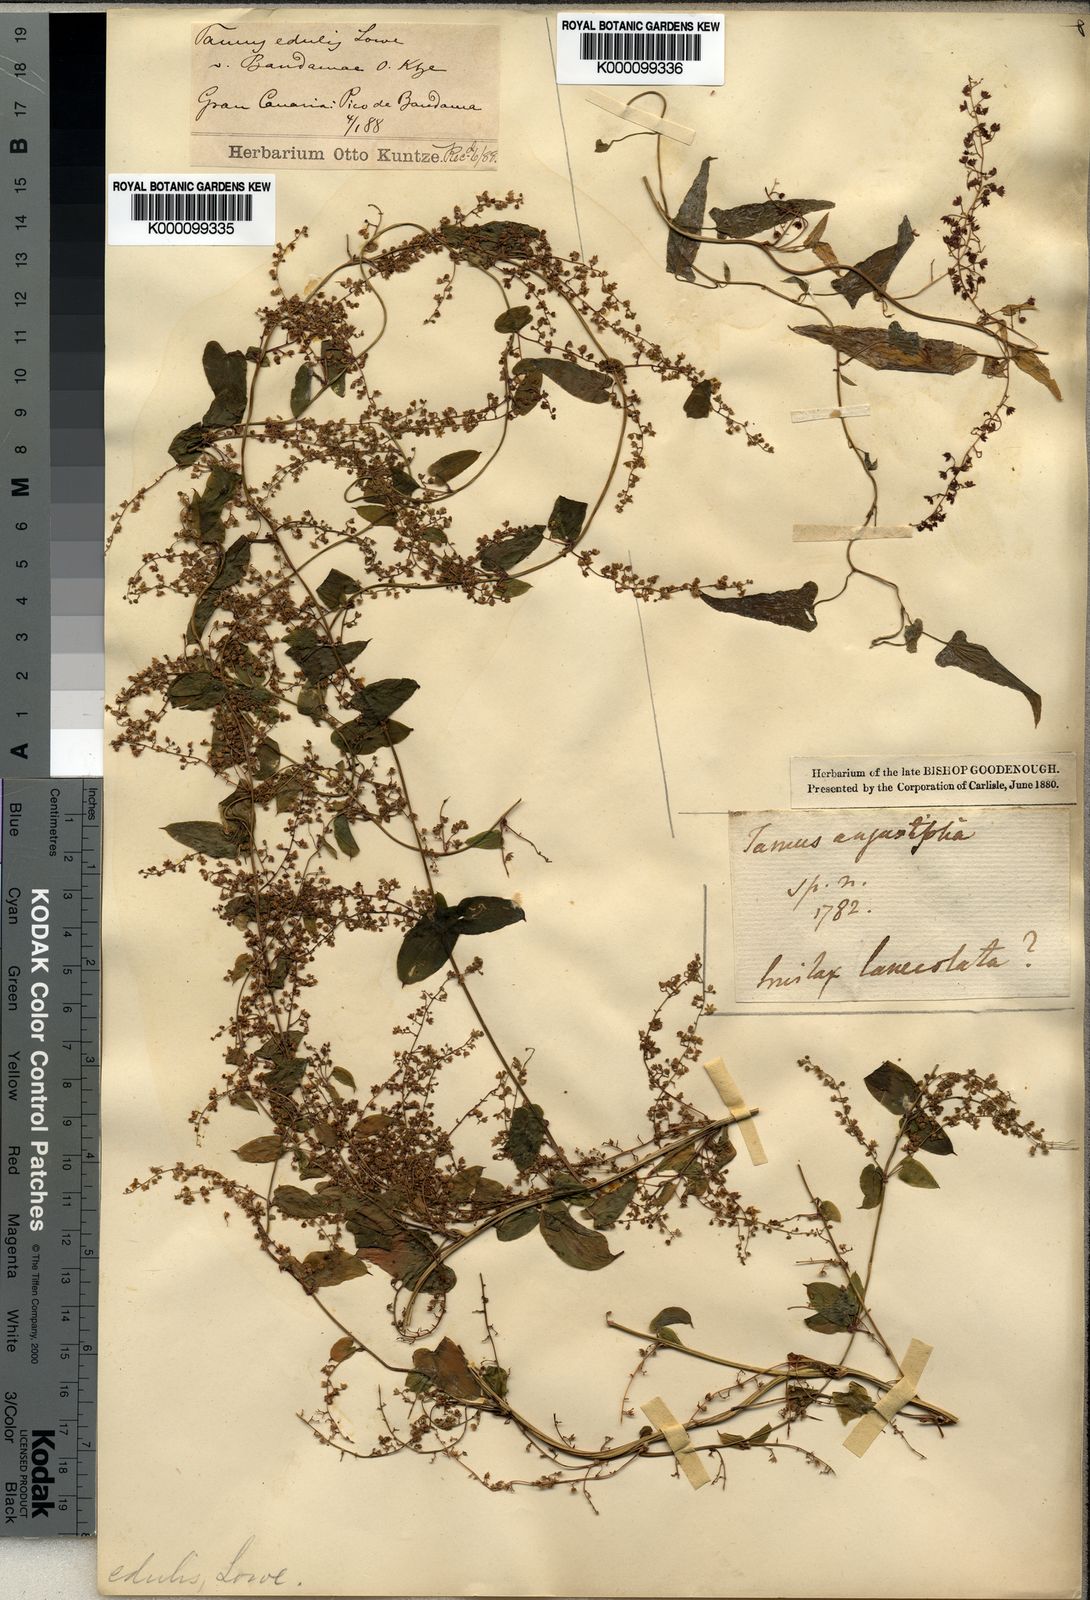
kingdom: Plantae
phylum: Tracheophyta
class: Liliopsida
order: Dioscoreales
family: Dioscoreaceae
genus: Dioscorea
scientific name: Dioscorea communis
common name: Black-bindweed
